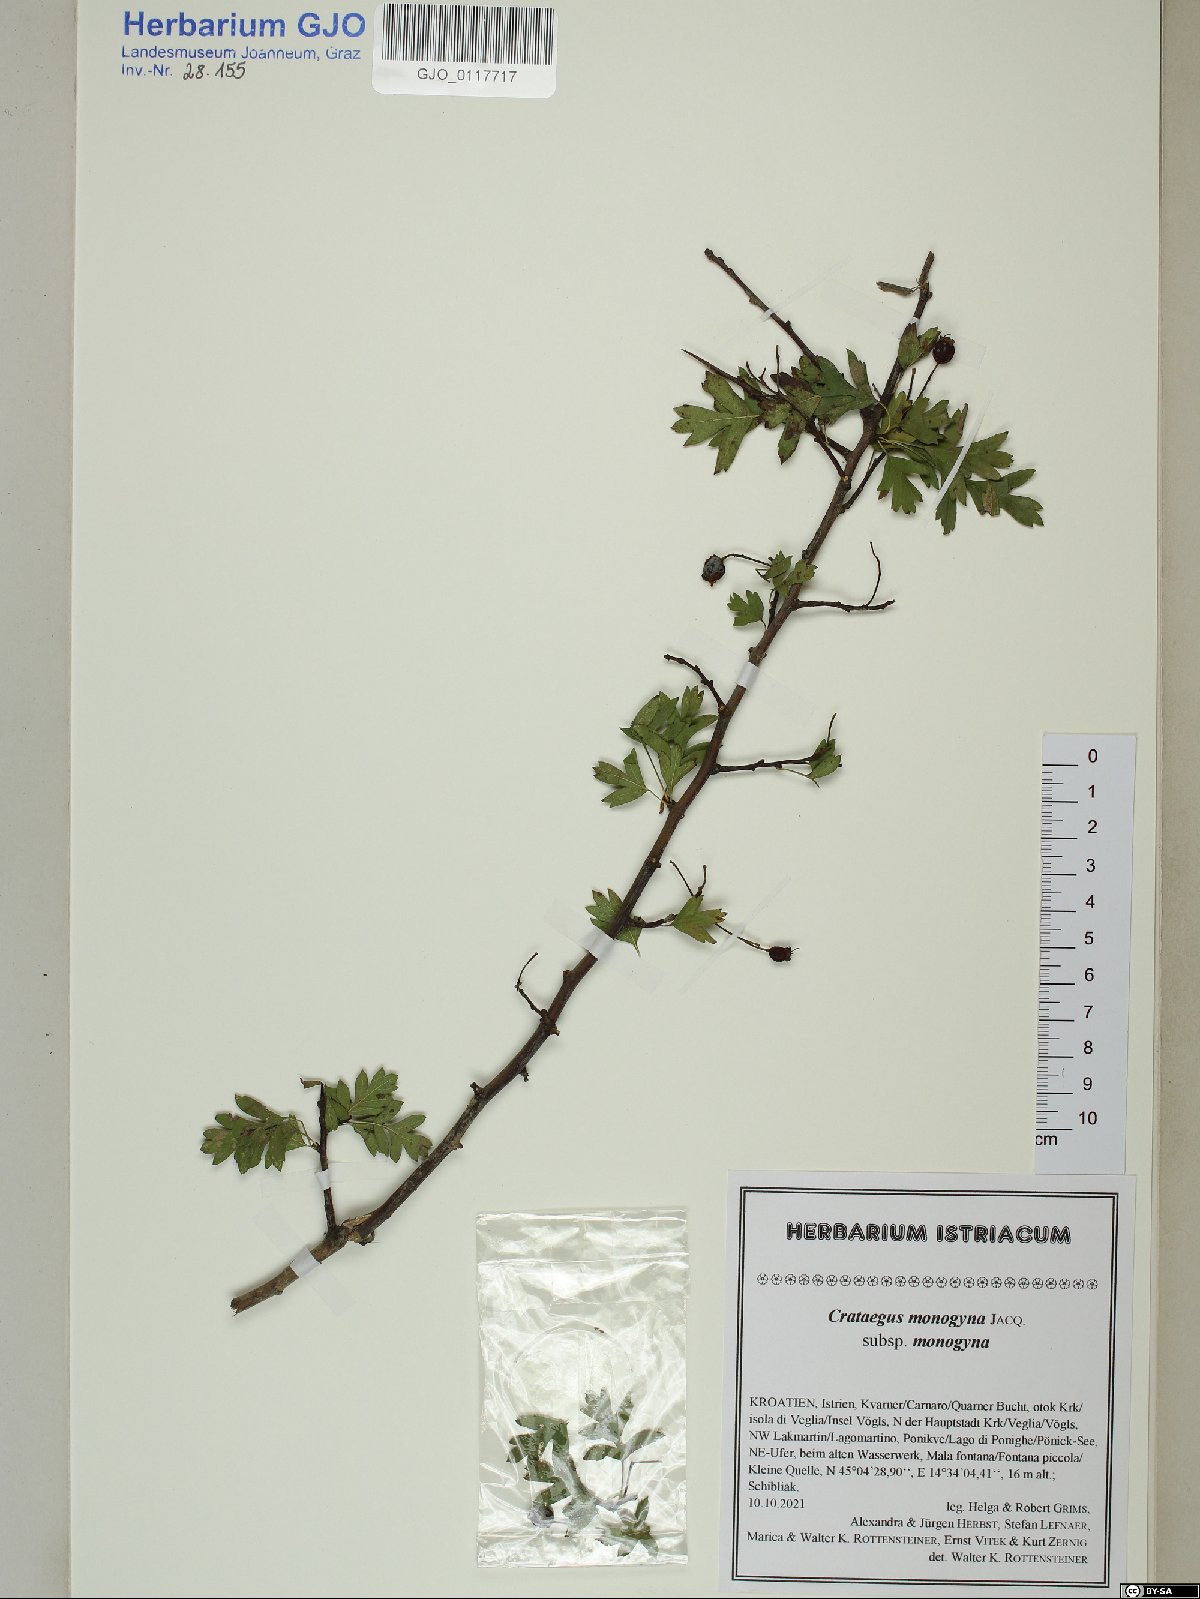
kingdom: Plantae
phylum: Tracheophyta
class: Magnoliopsida
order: Rosales
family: Rosaceae
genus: Crataegus
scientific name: Crataegus monogyna
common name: Hawthorn
